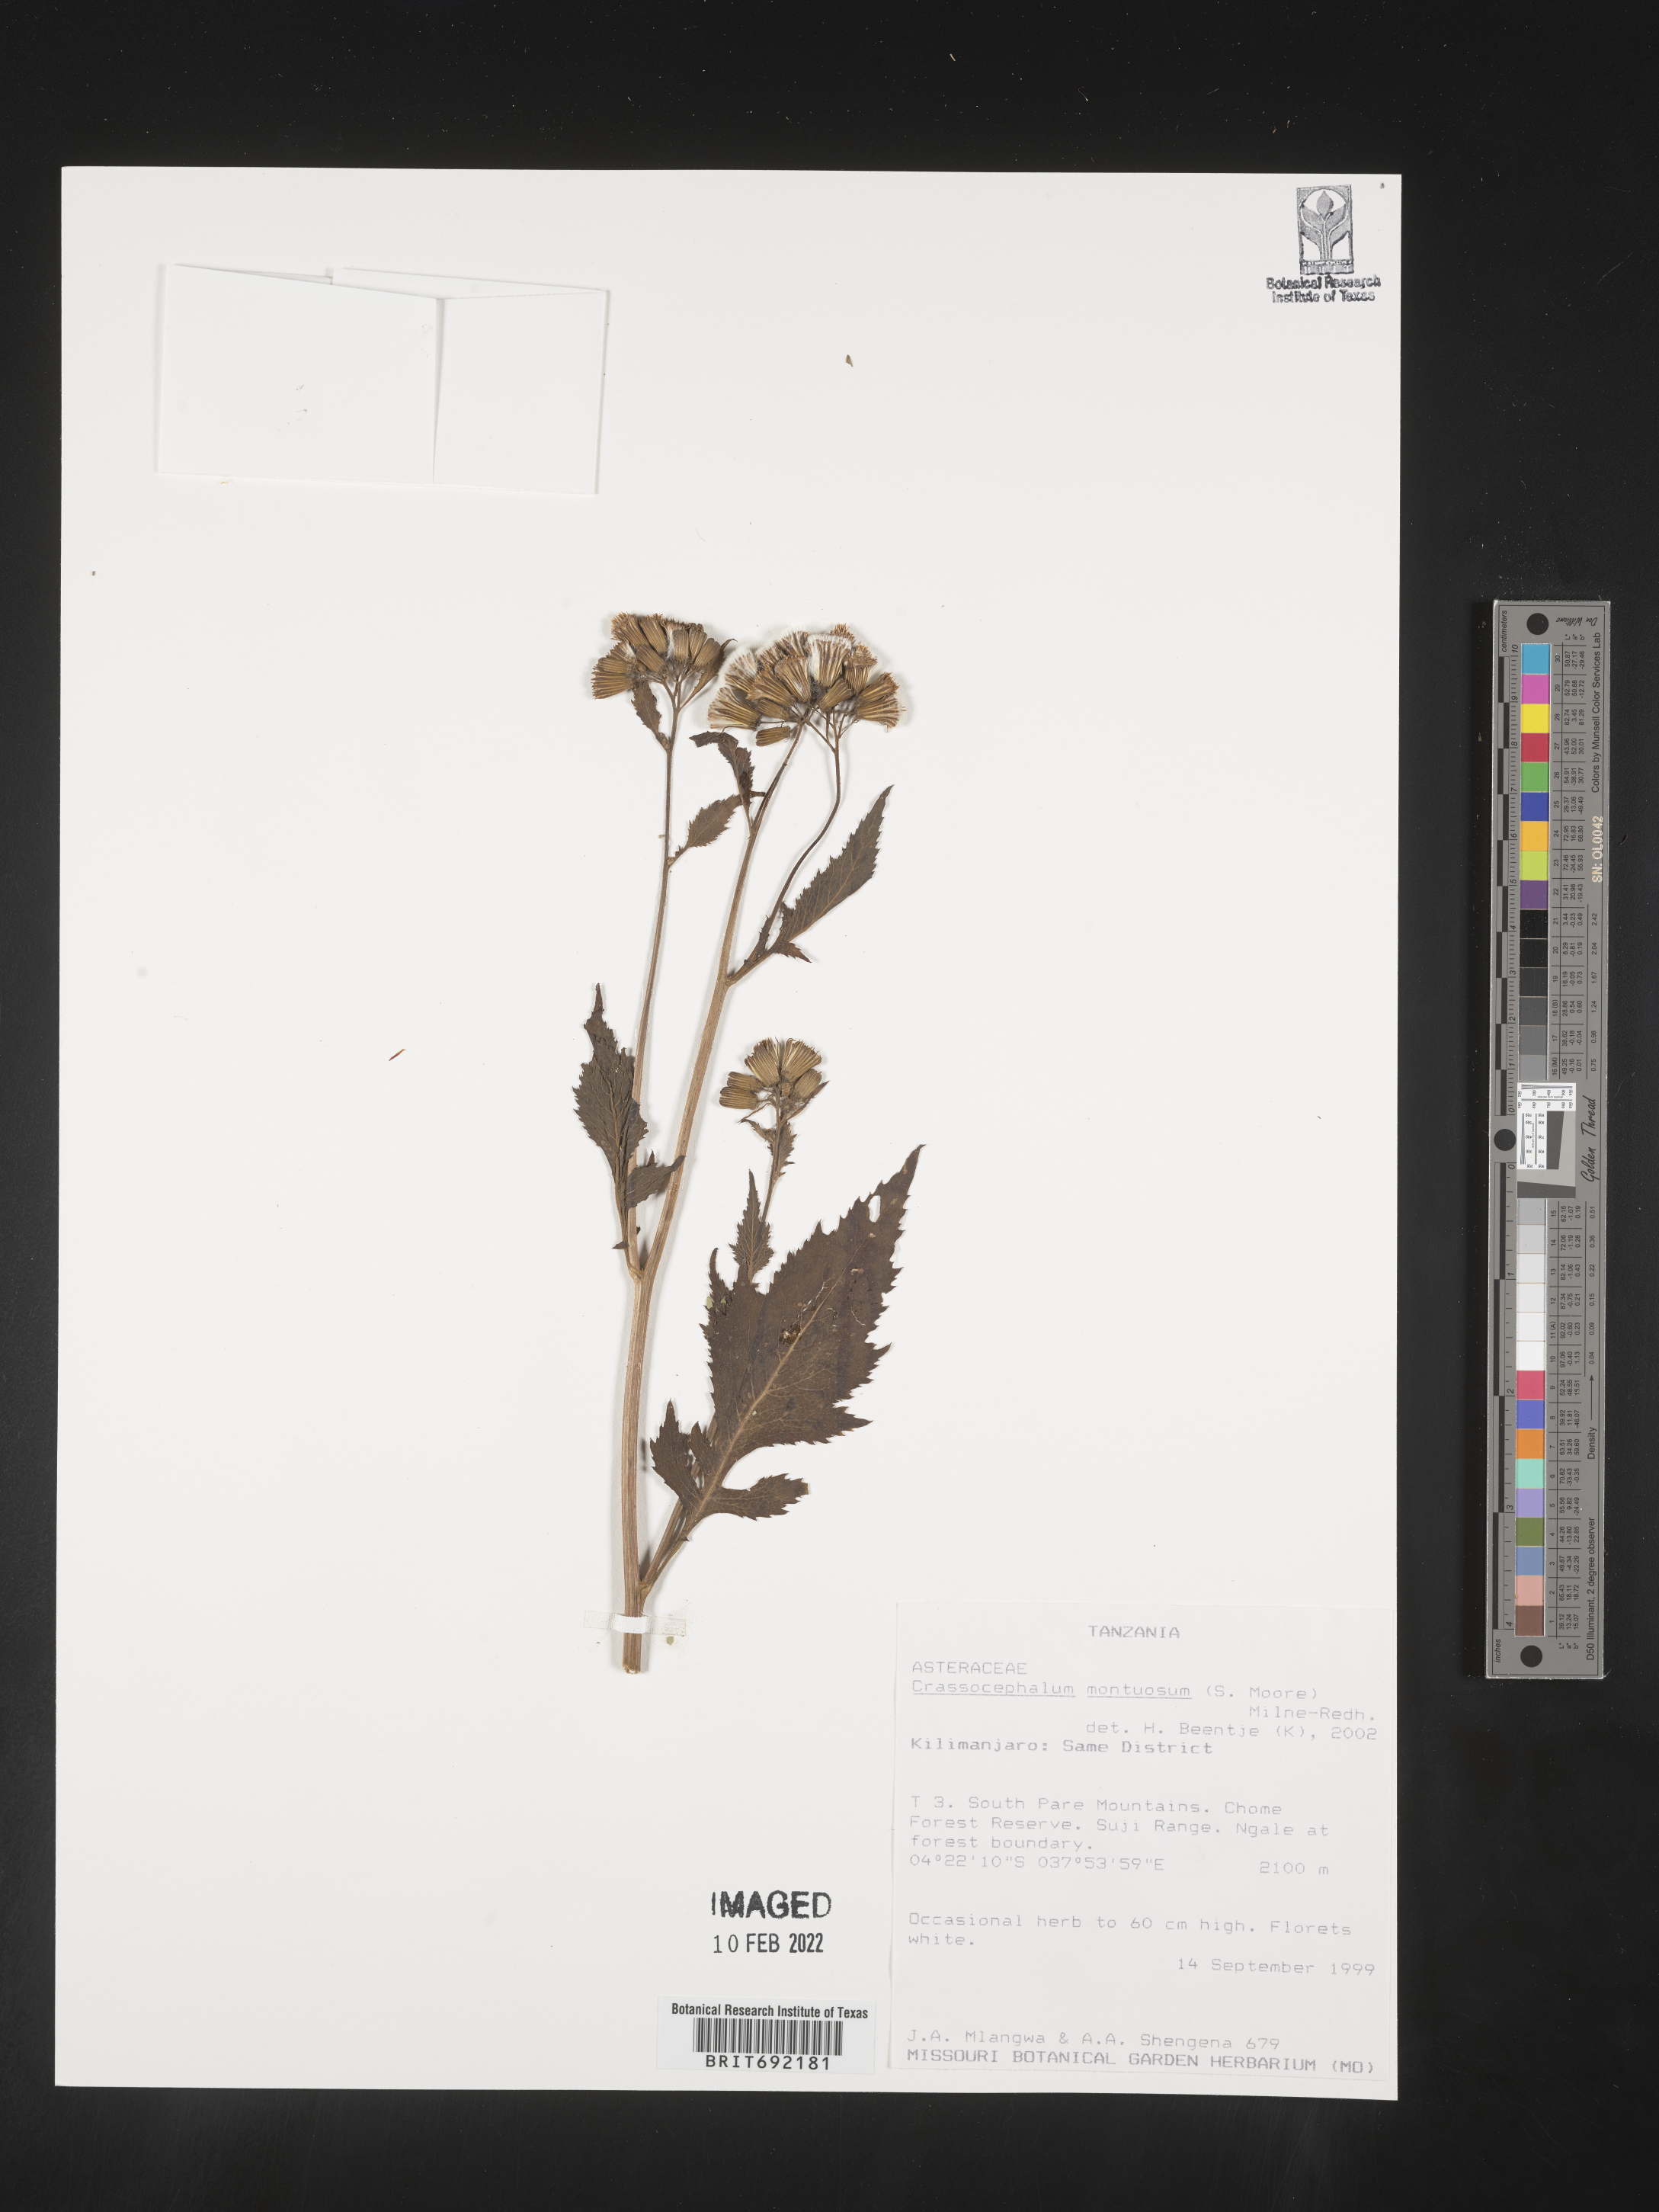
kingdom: Plantae
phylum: Tracheophyta
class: Magnoliopsida
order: Asterales
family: Asteraceae
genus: Crassocephalum
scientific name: Crassocephalum
